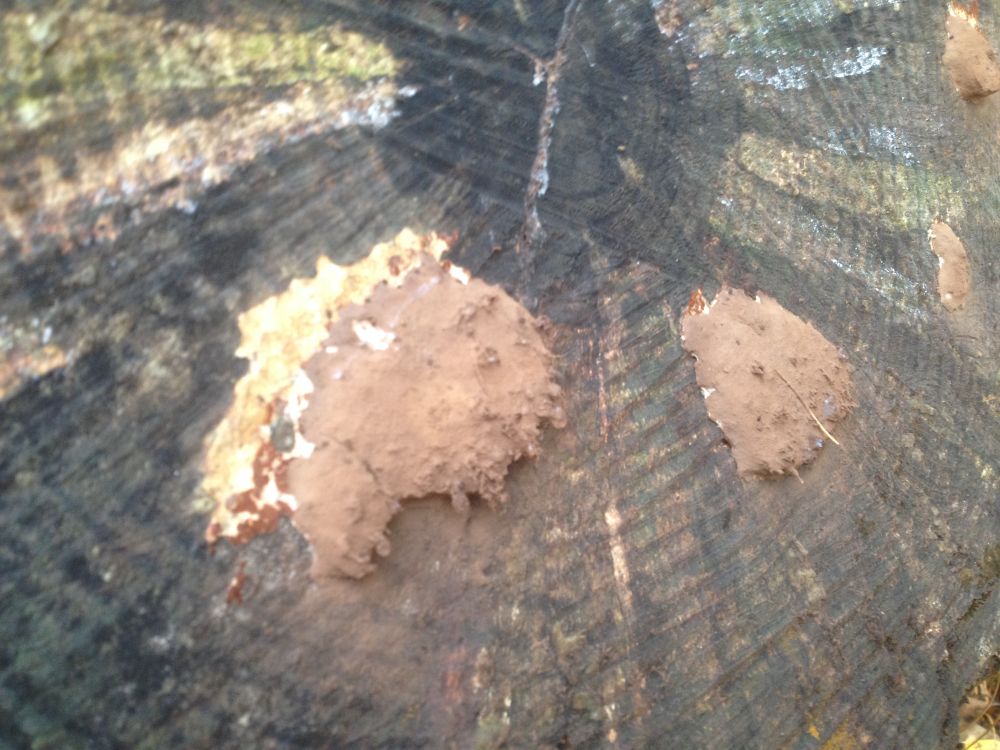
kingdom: Protozoa
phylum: Mycetozoa
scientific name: Mycetozoa
